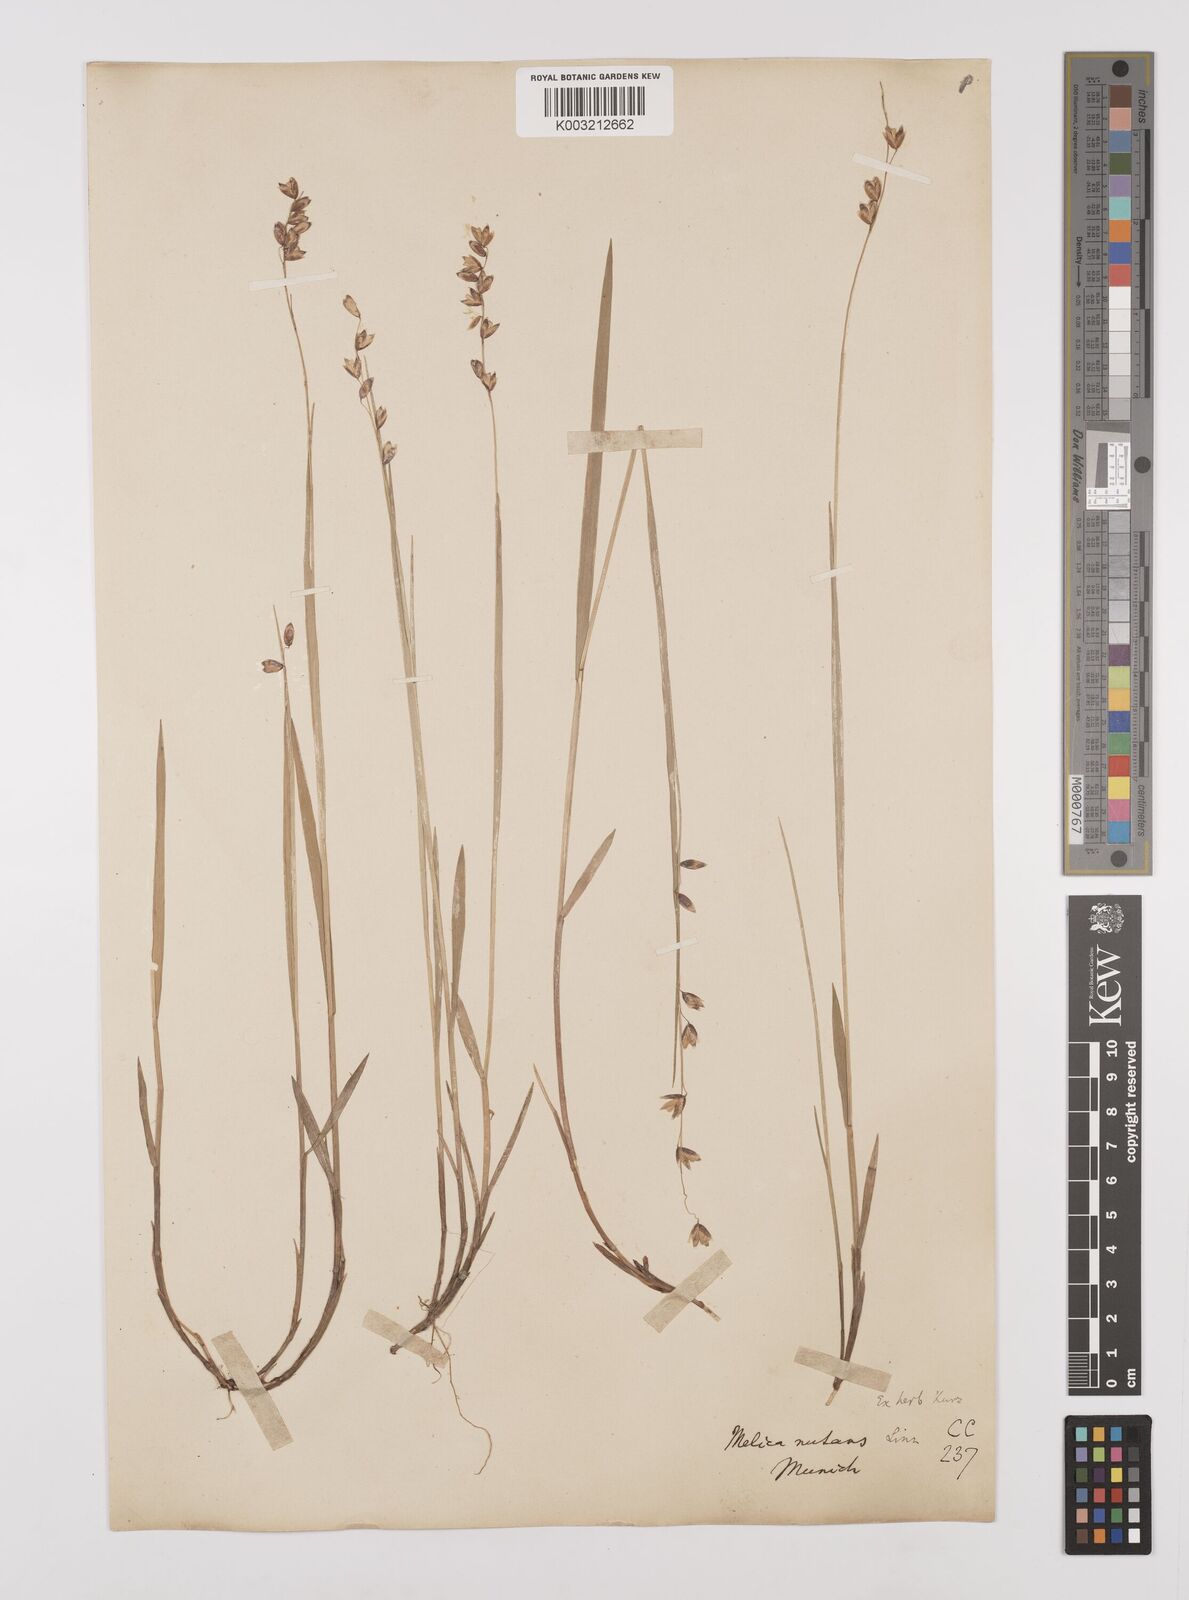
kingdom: Plantae
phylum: Tracheophyta
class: Liliopsida
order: Poales
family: Poaceae
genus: Melica
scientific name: Melica
